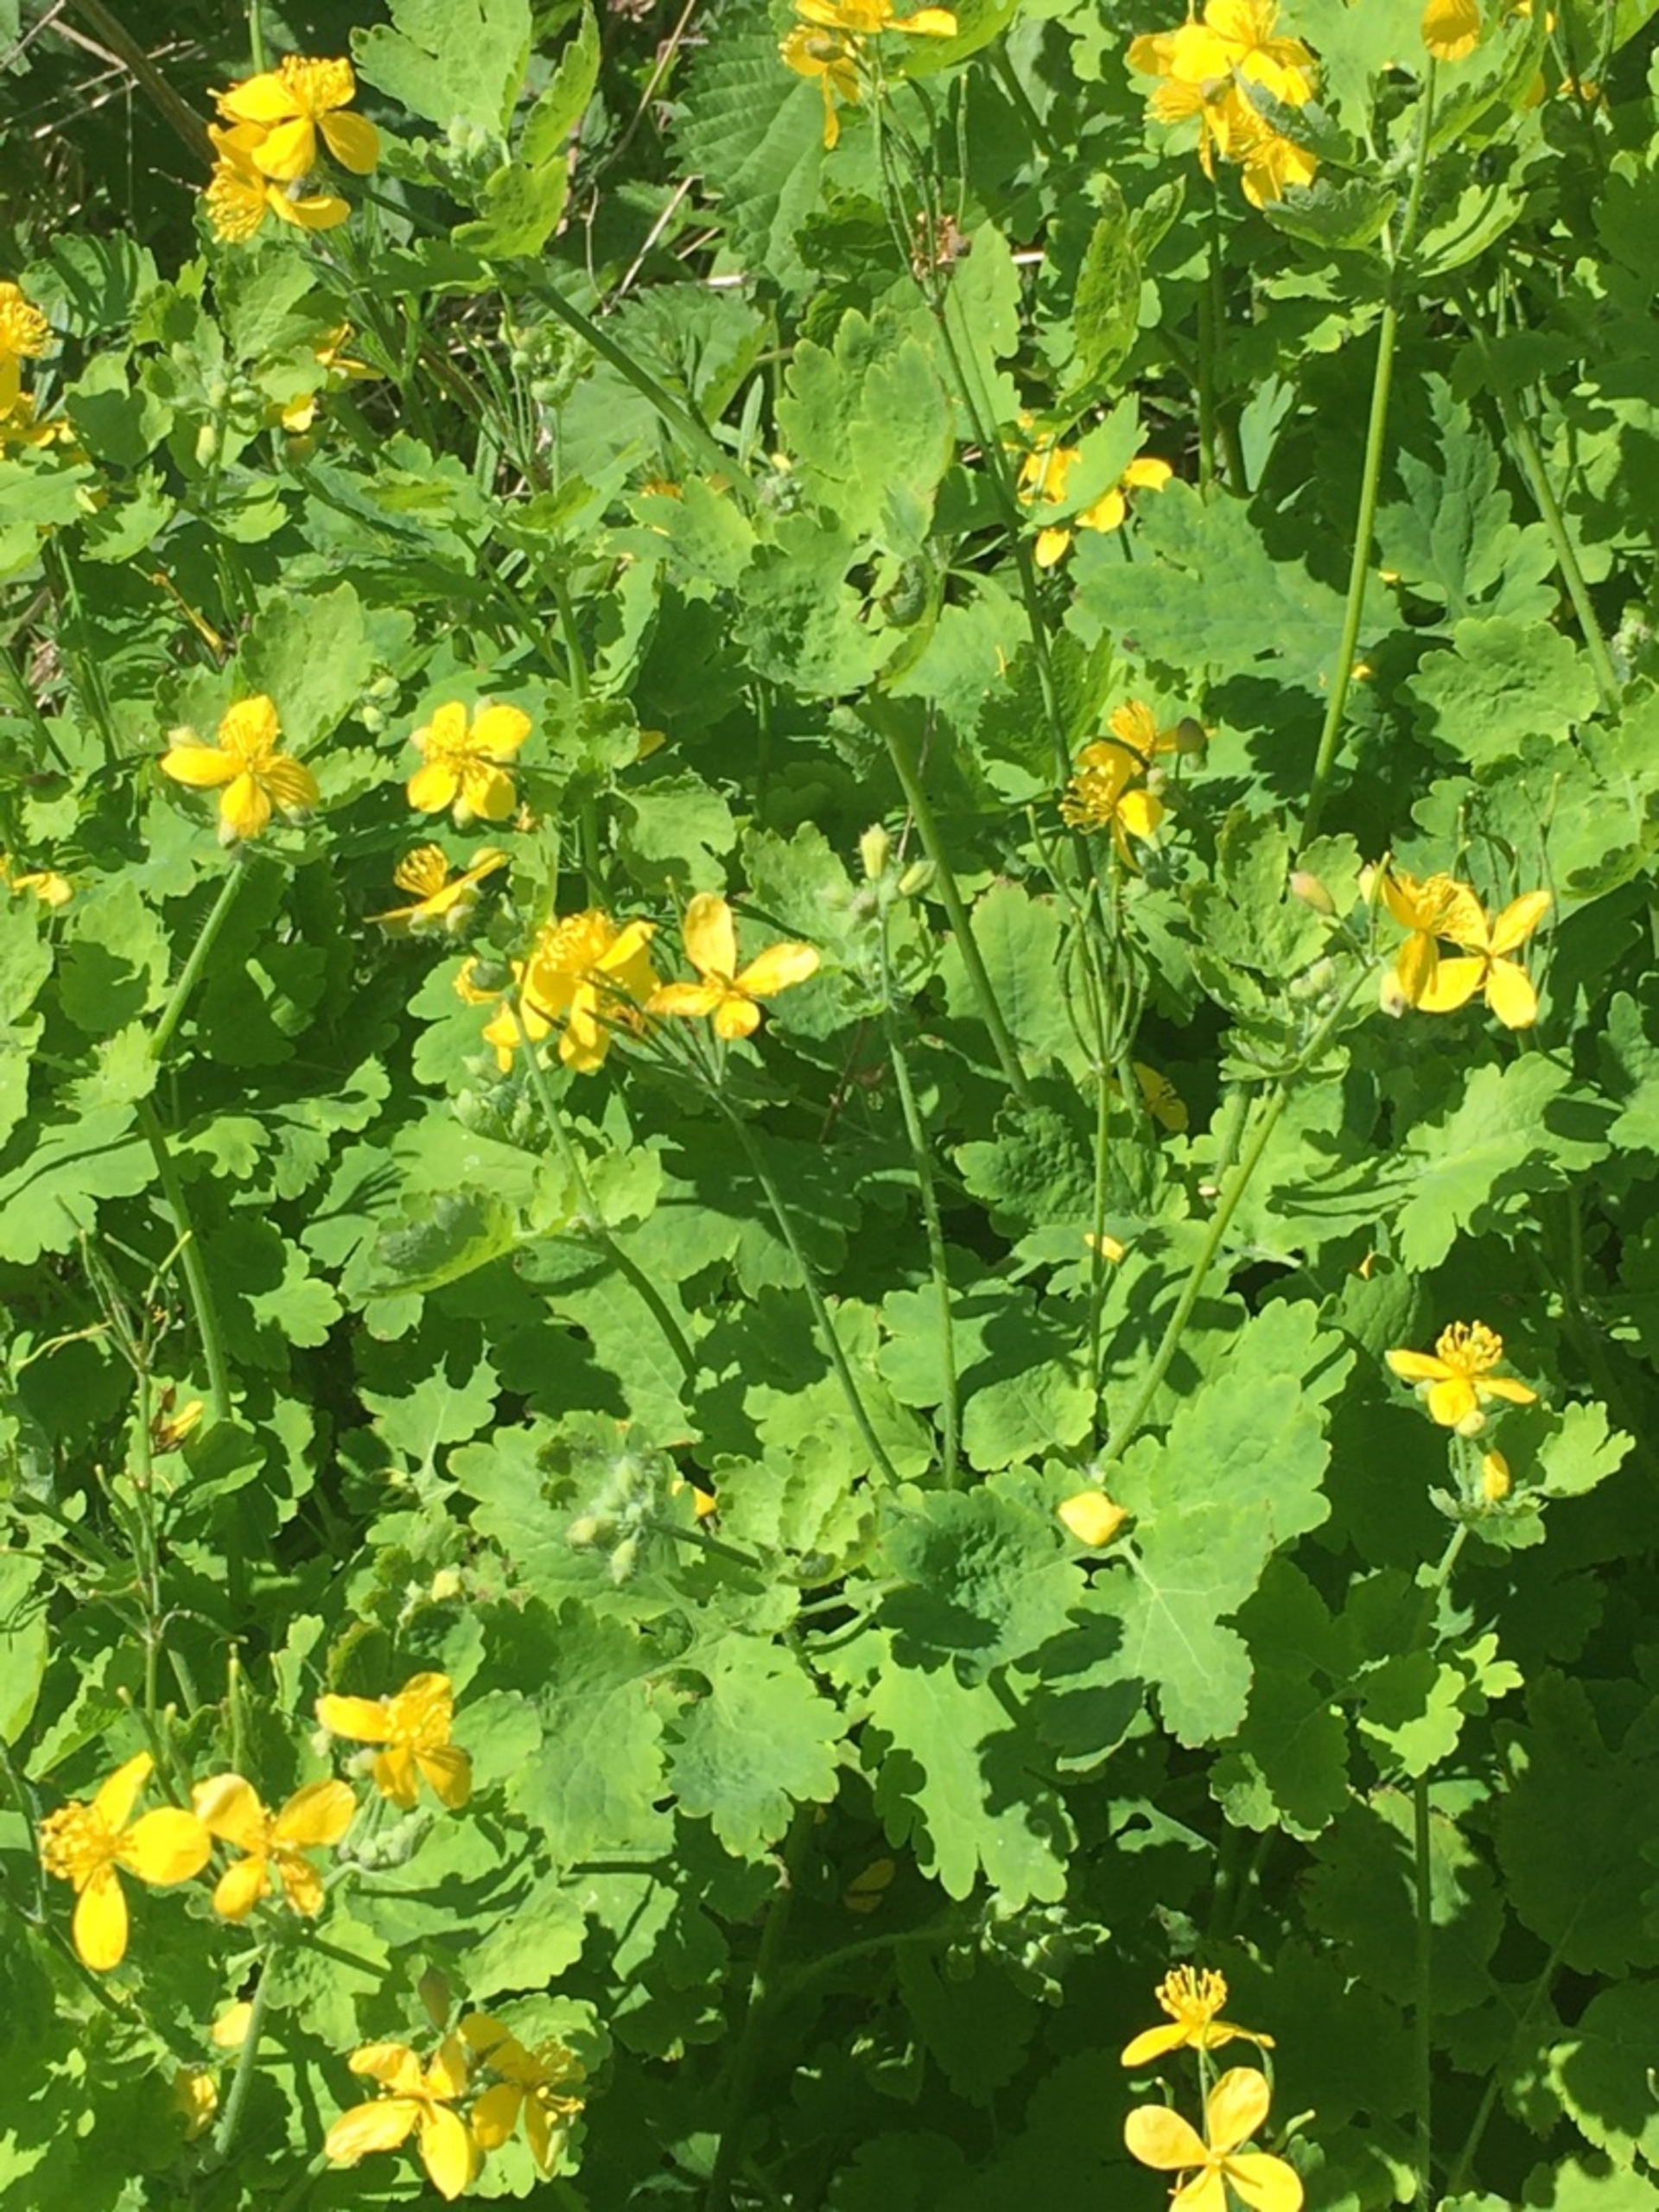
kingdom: Plantae
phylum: Tracheophyta
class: Magnoliopsida
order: Ranunculales
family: Papaveraceae
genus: Chelidonium
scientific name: Chelidonium majus
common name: Svaleurt
